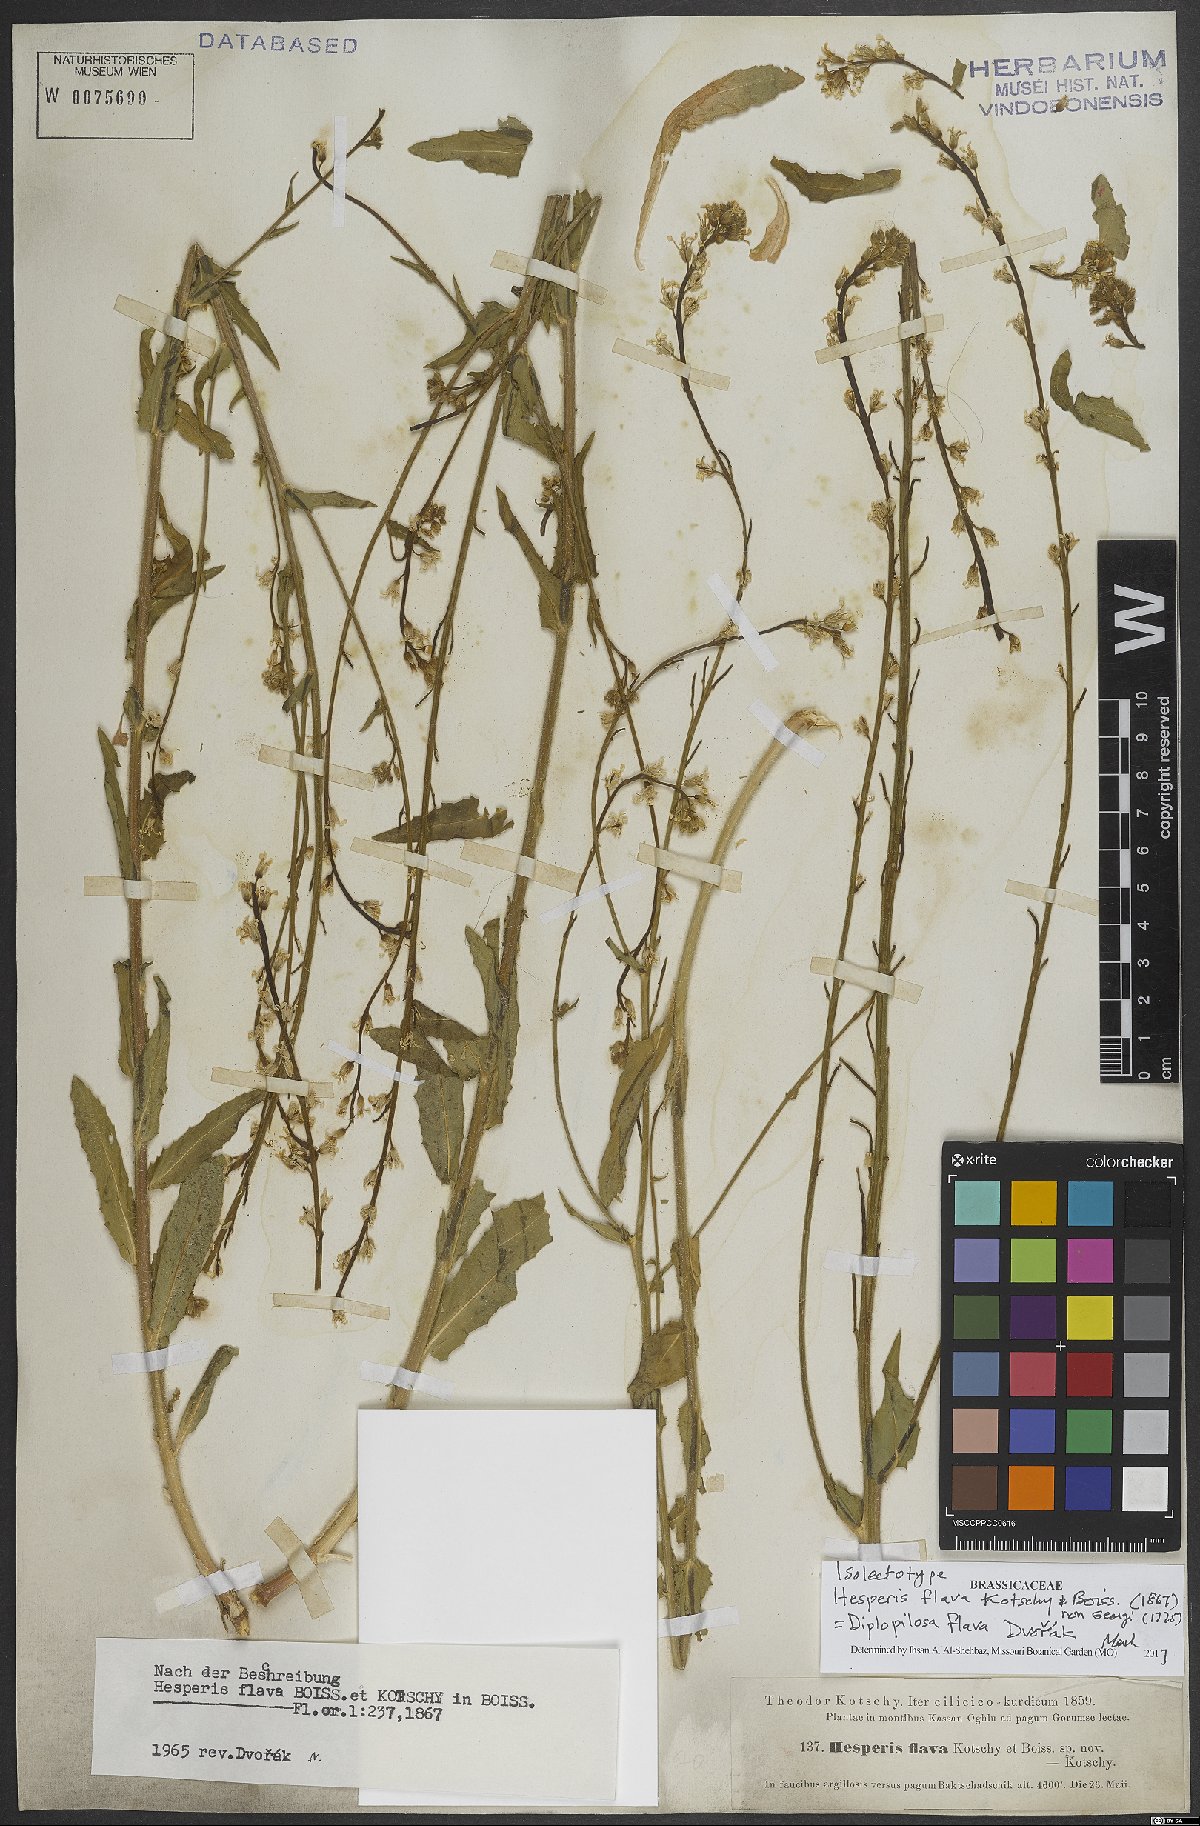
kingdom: Plantae
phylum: Tracheophyta
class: Magnoliopsida
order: Brassicales
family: Brassicaceae
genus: Hesperis
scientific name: Hesperis dvorakii
